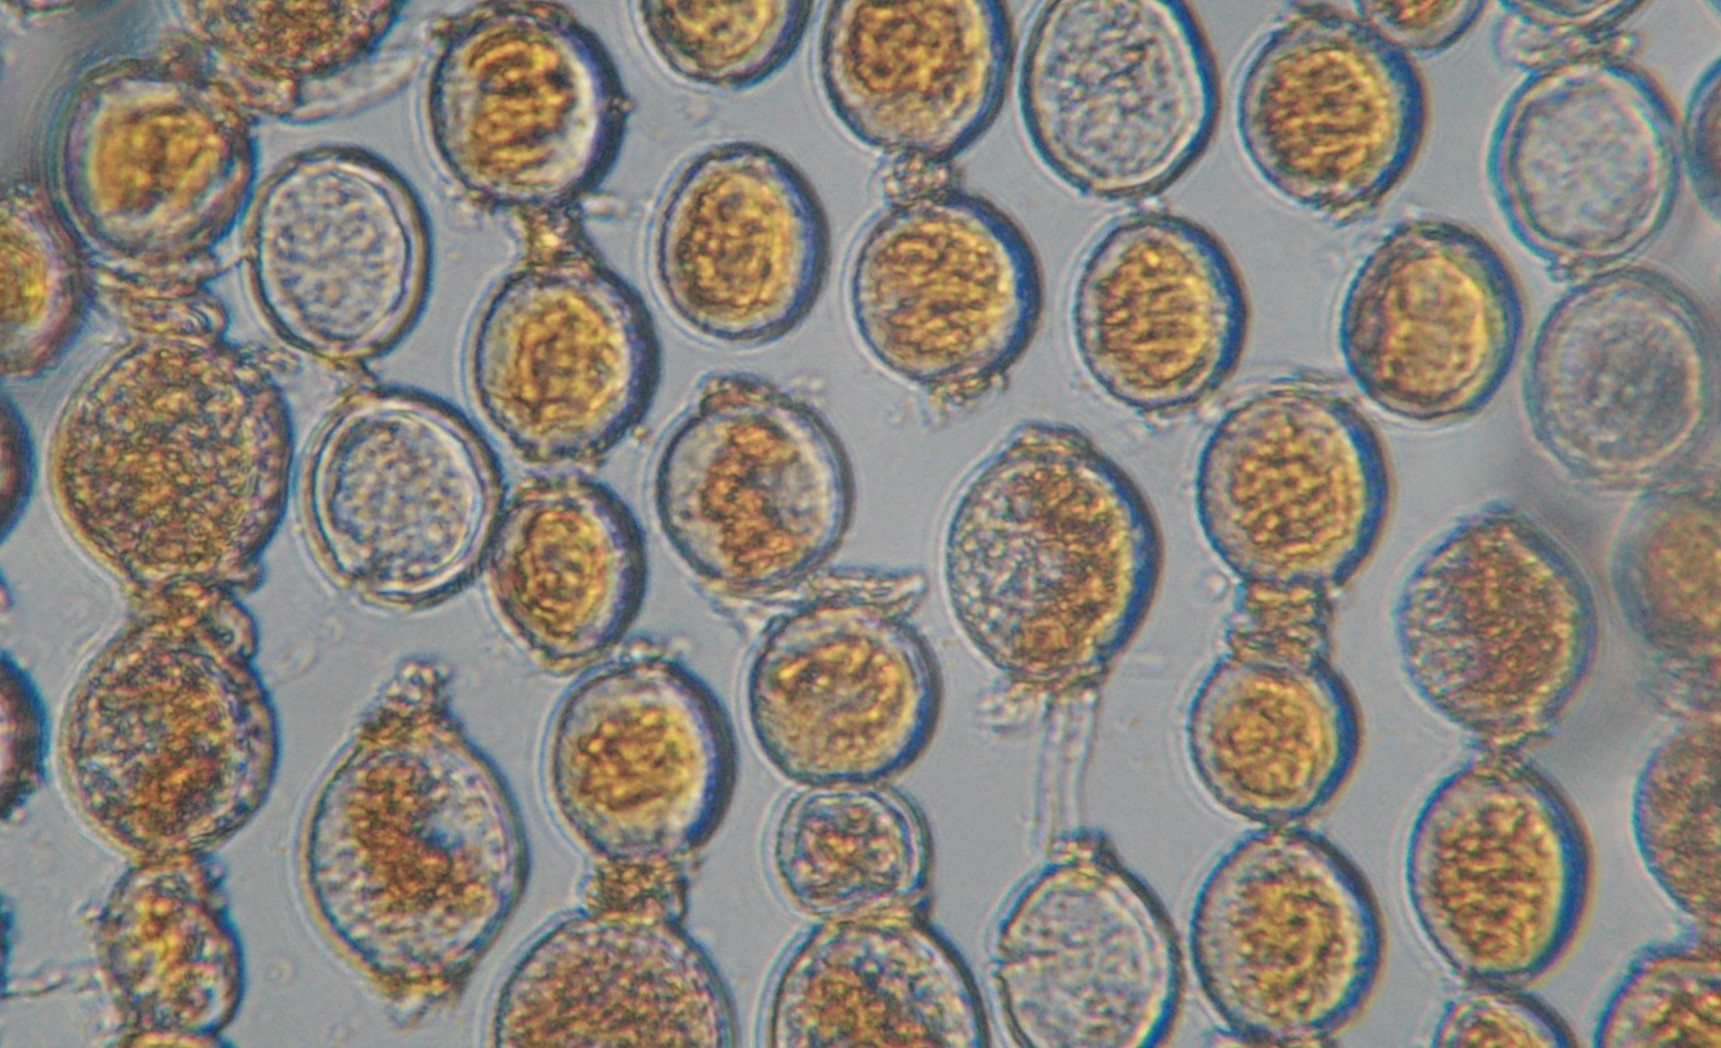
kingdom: Fungi
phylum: Basidiomycota
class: Pucciniomycetes
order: Pucciniales
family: Pucciniaceae
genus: Puccinia
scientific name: Puccinia porri
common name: Allium rust
